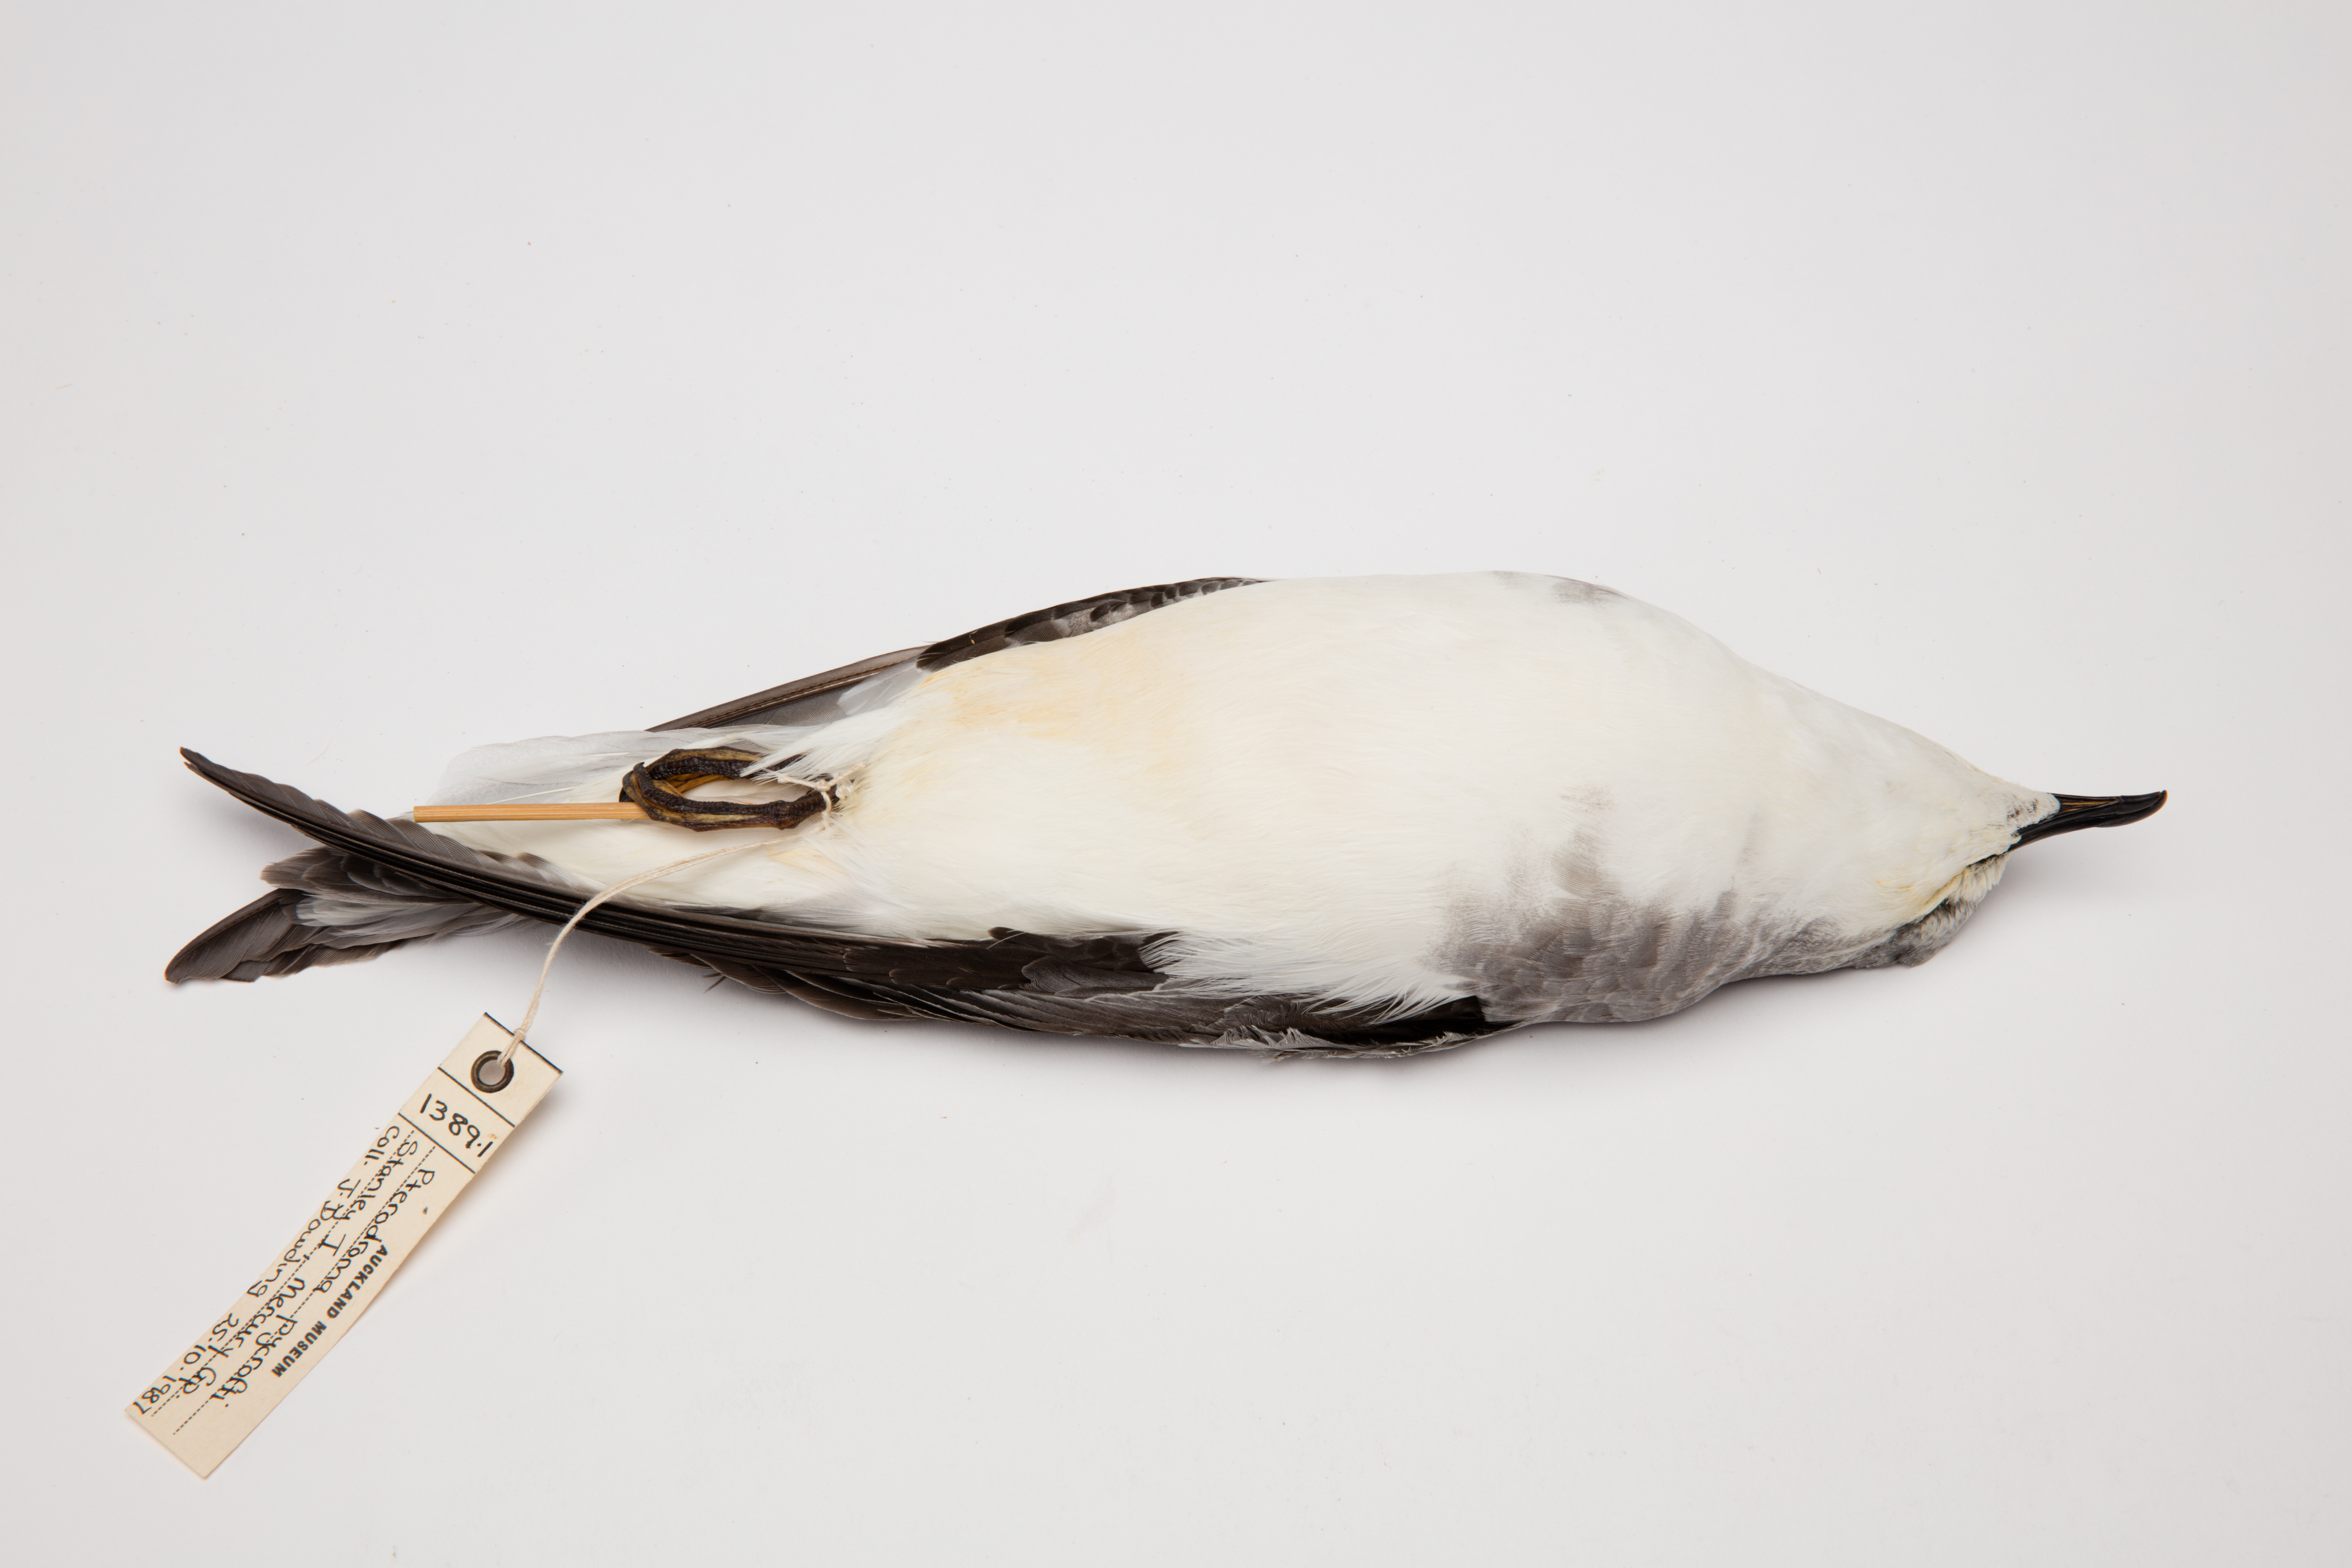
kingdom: Animalia
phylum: Chordata
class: Aves
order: Procellariiformes
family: Procellariidae
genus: Pterodroma
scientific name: Pterodroma pycrofti
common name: Pycroft's petrel
